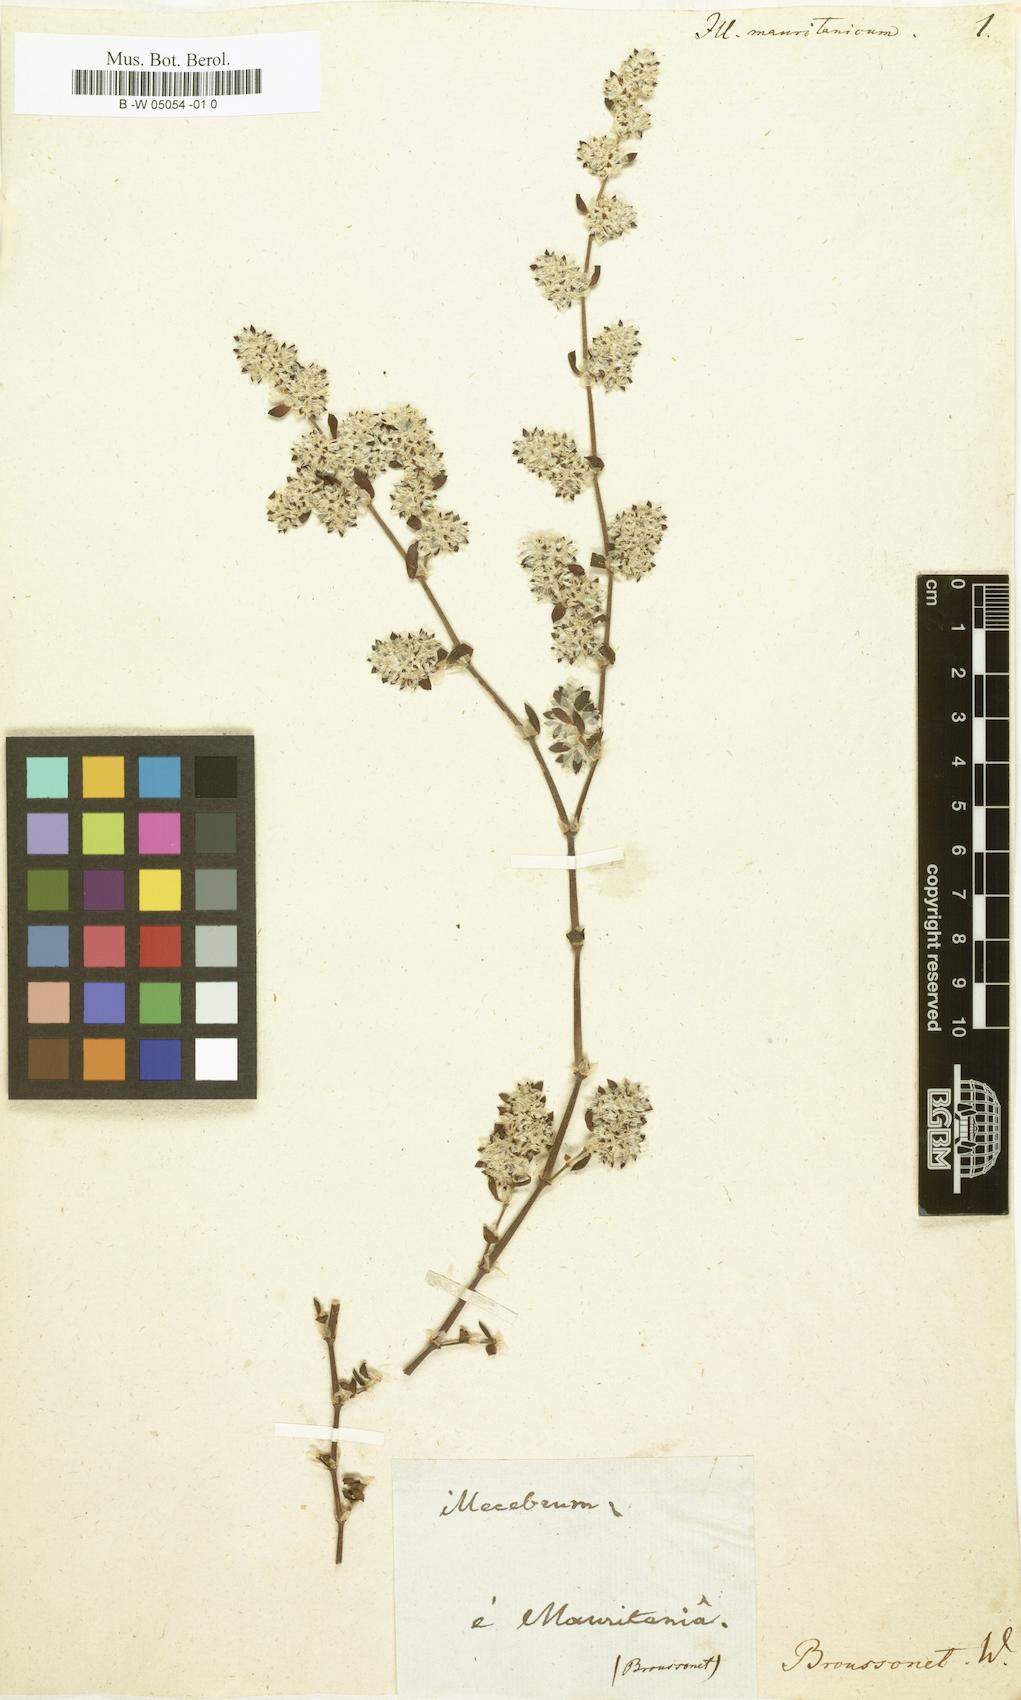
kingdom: Plantae
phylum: Tracheophyta
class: Magnoliopsida
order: Caryophyllales
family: Caryophyllaceae
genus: Paronychia
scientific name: Paronychia argentea
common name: Silver nailroot
